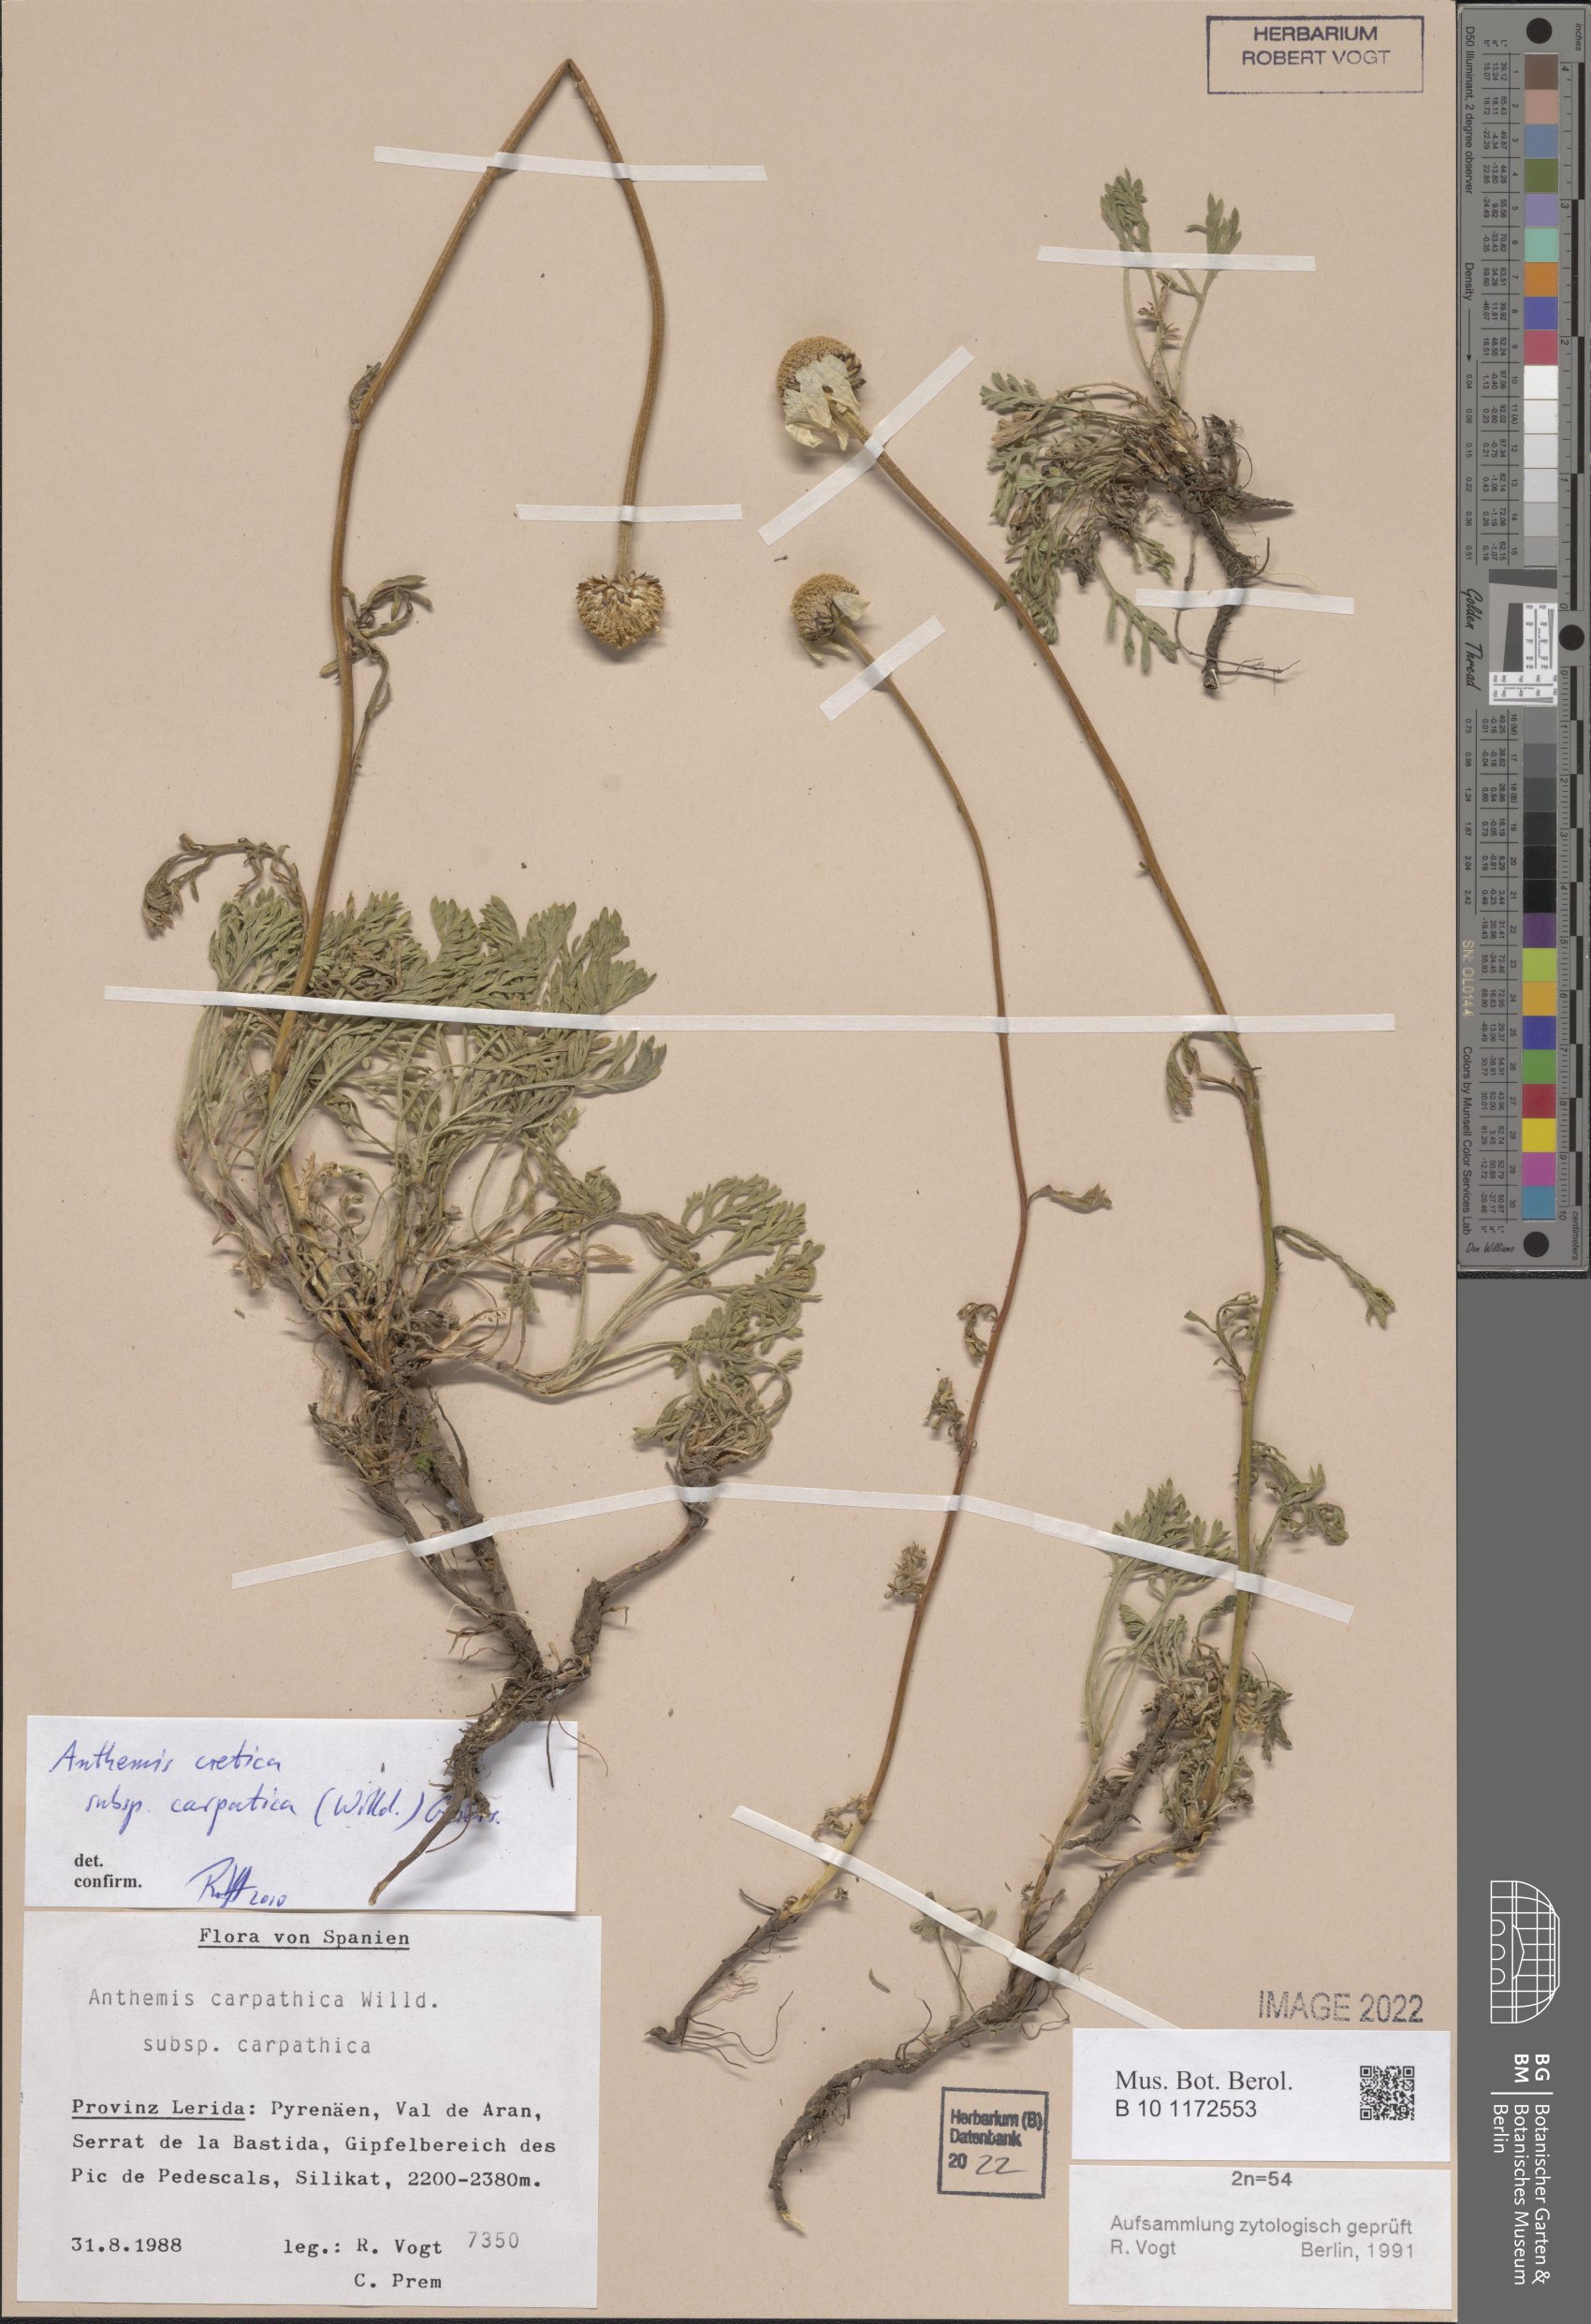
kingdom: Plantae
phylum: Tracheophyta
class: Magnoliopsida
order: Asterales
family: Asteraceae
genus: Anthemis
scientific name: Anthemis cretica
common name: Mountain dog-daisy
